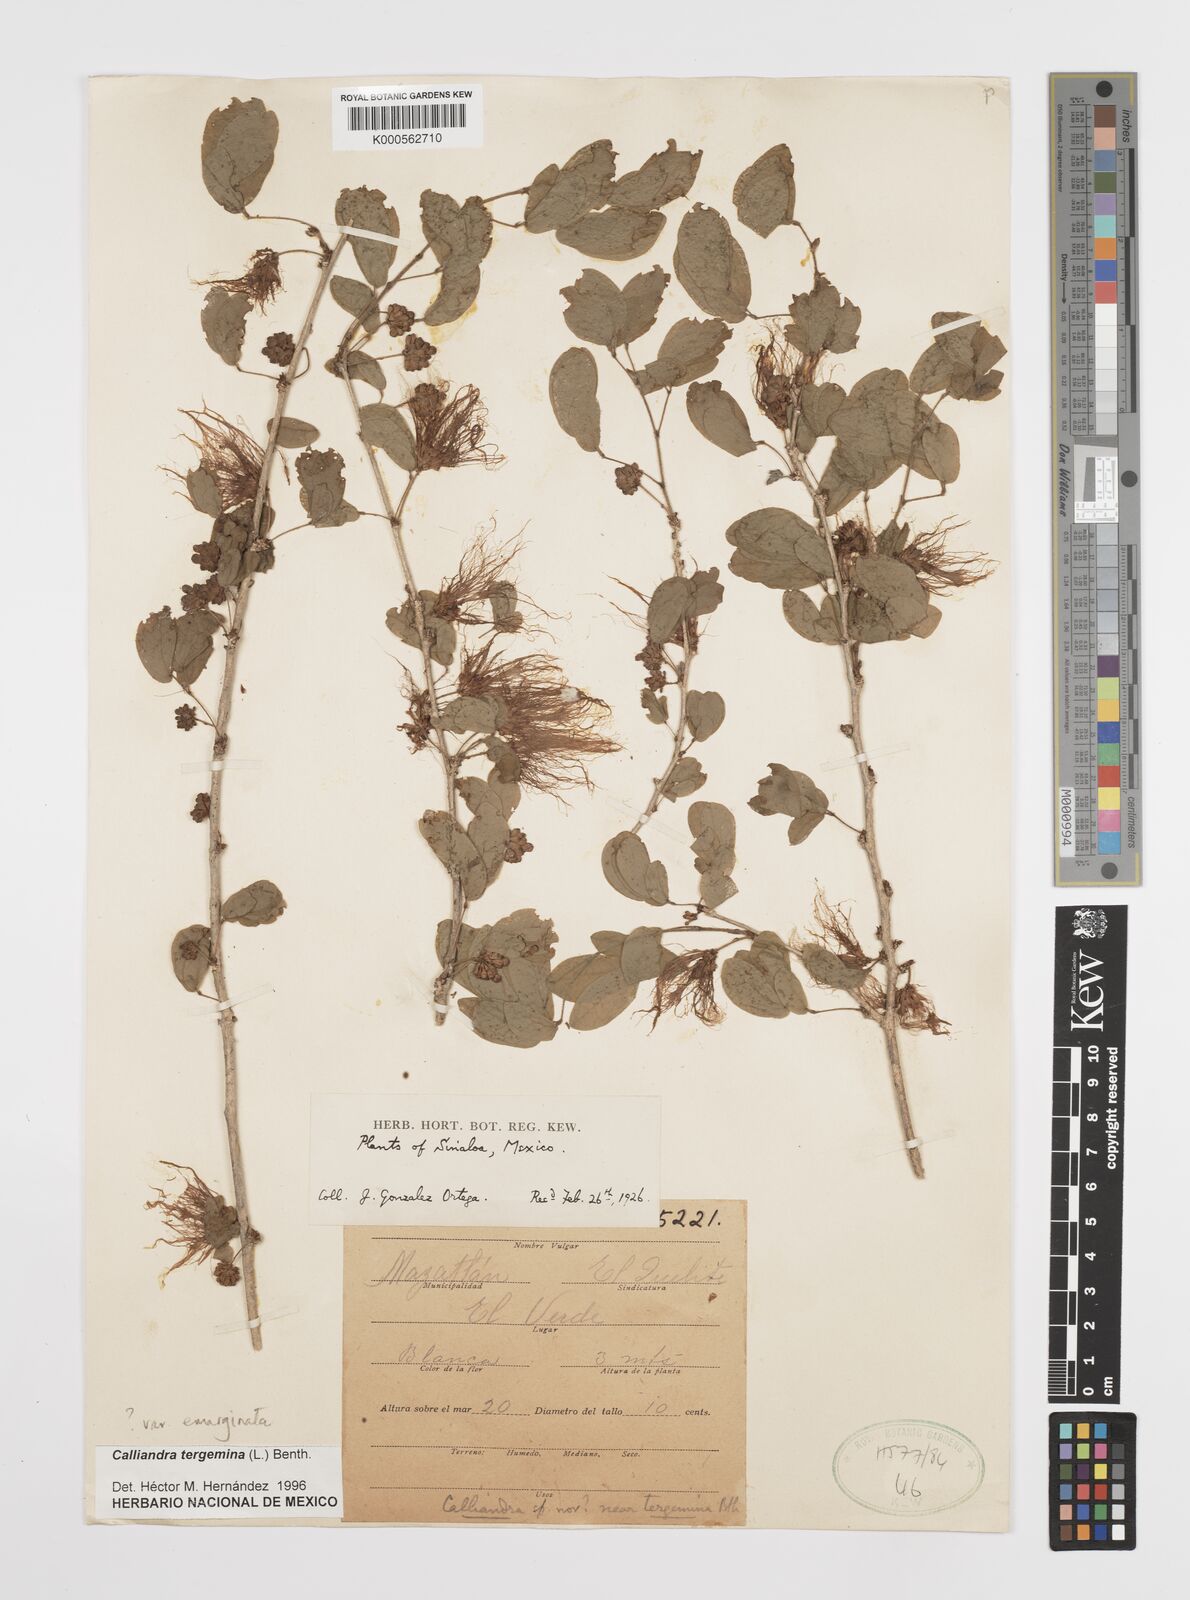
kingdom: Plantae
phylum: Tracheophyta
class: Magnoliopsida
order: Fabales
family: Fabaceae
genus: Calliandra
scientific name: Calliandra tergemina
